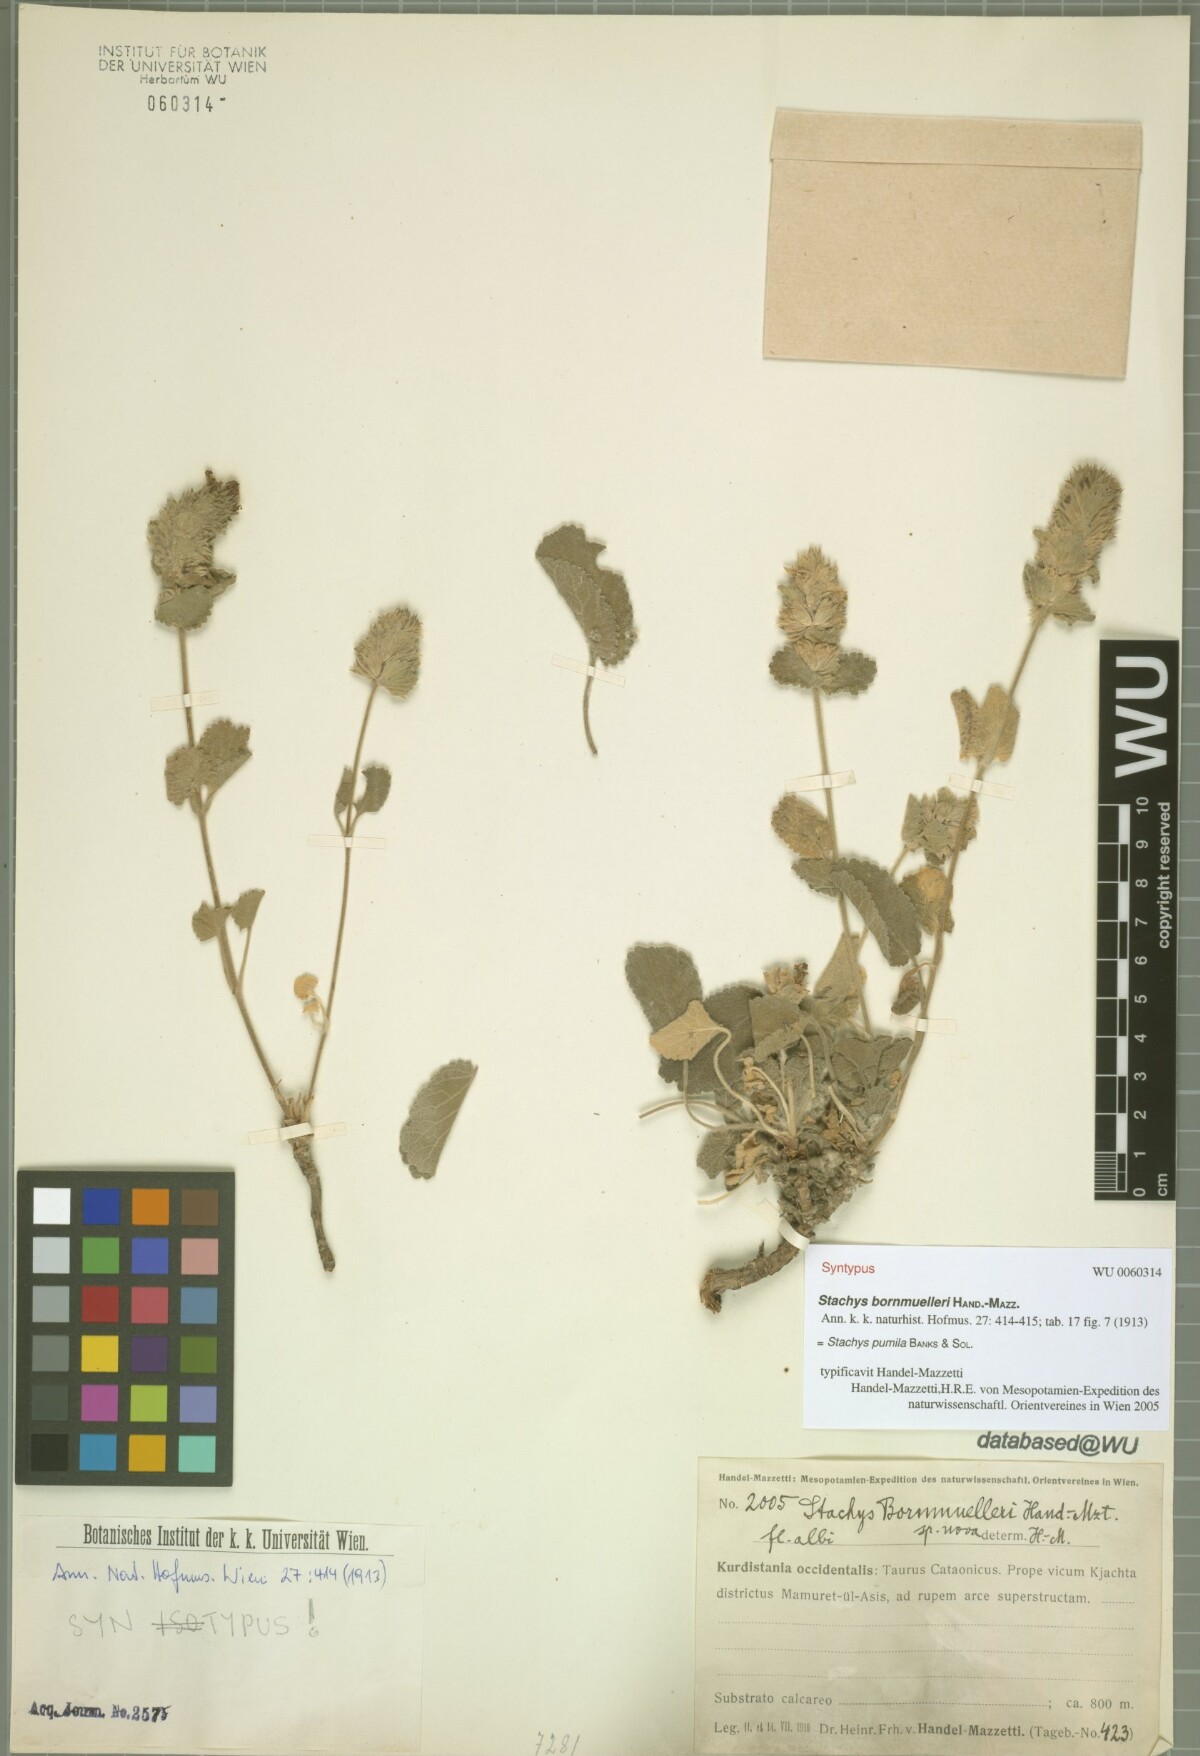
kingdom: Plantae
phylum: Tracheophyta
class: Magnoliopsida
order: Lamiales
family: Lamiaceae
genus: Stachys
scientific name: Stachys pumila
